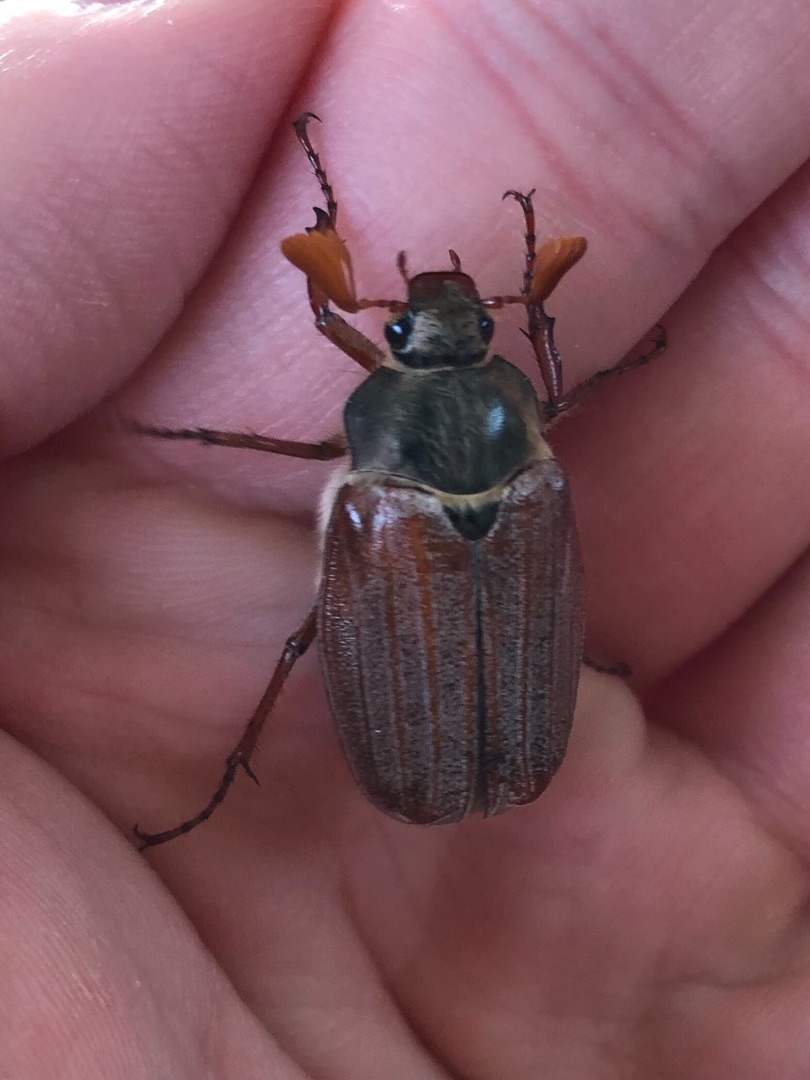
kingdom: Animalia
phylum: Arthropoda
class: Insecta
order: Coleoptera
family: Scarabaeidae
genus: Melolontha
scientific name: Melolontha melolontha
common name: Almindelig oldenborre
